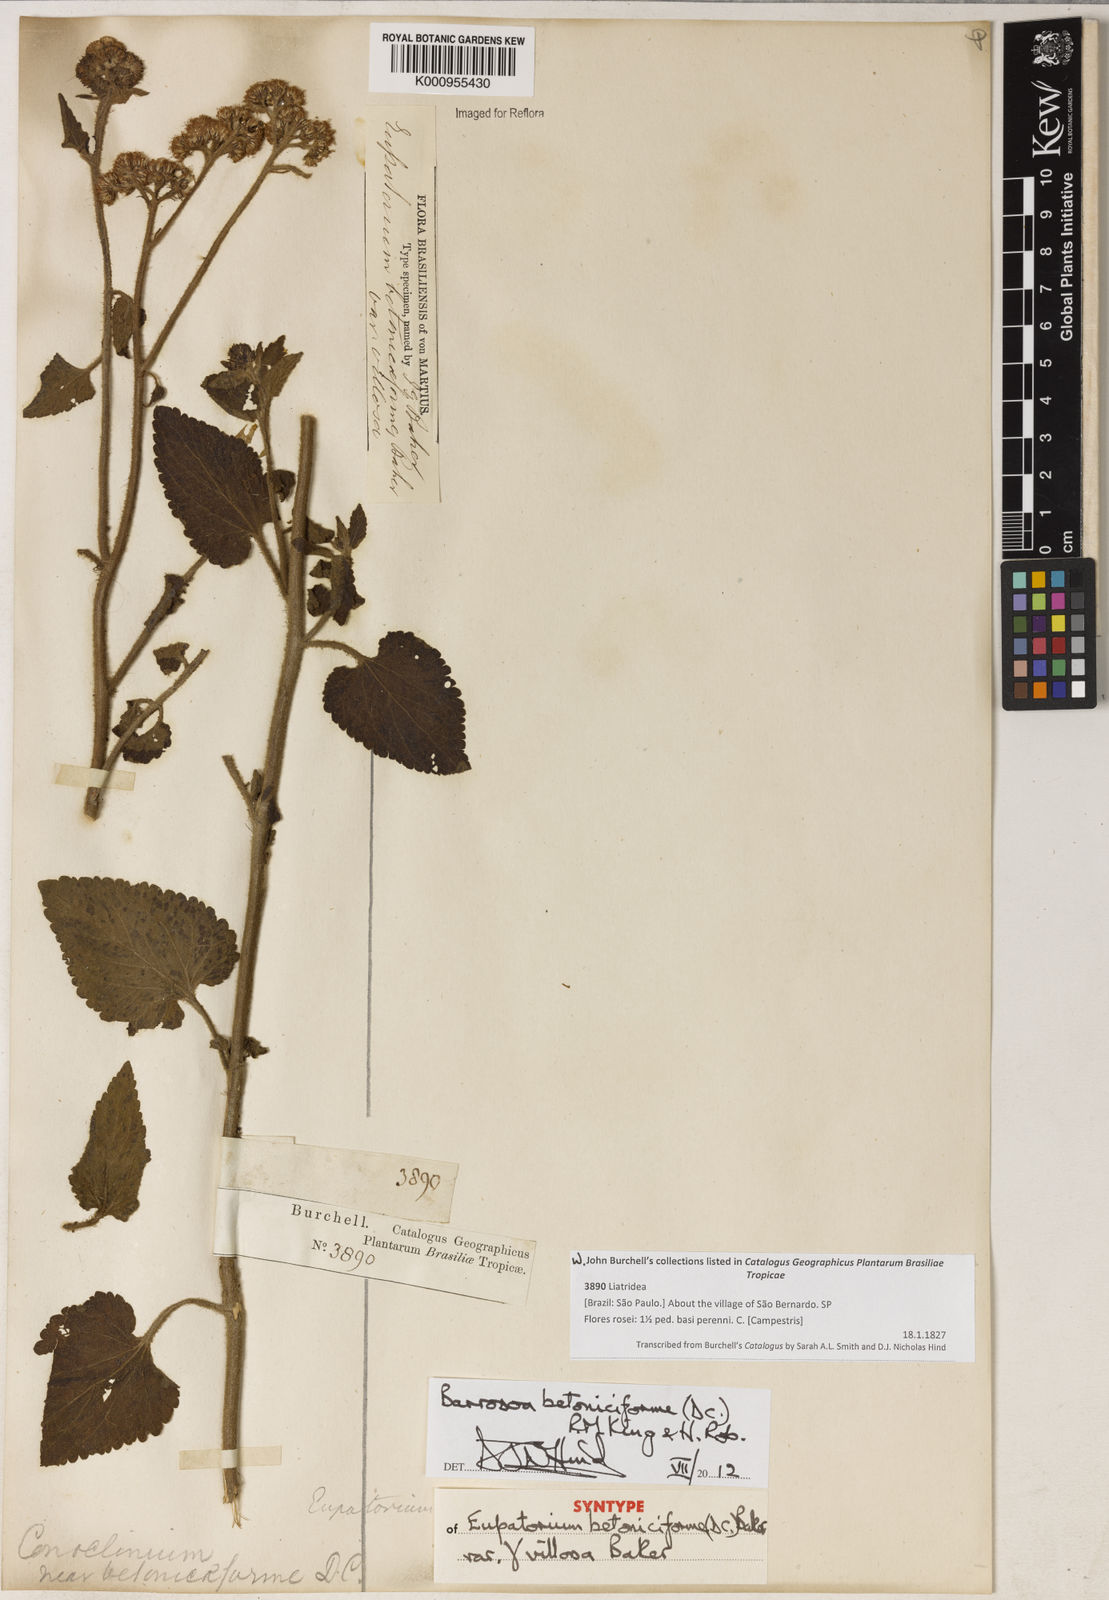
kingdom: Plantae
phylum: Tracheophyta
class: Magnoliopsida
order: Asterales
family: Asteraceae
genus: Barrosoa
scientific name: Barrosoa betoniciformis
